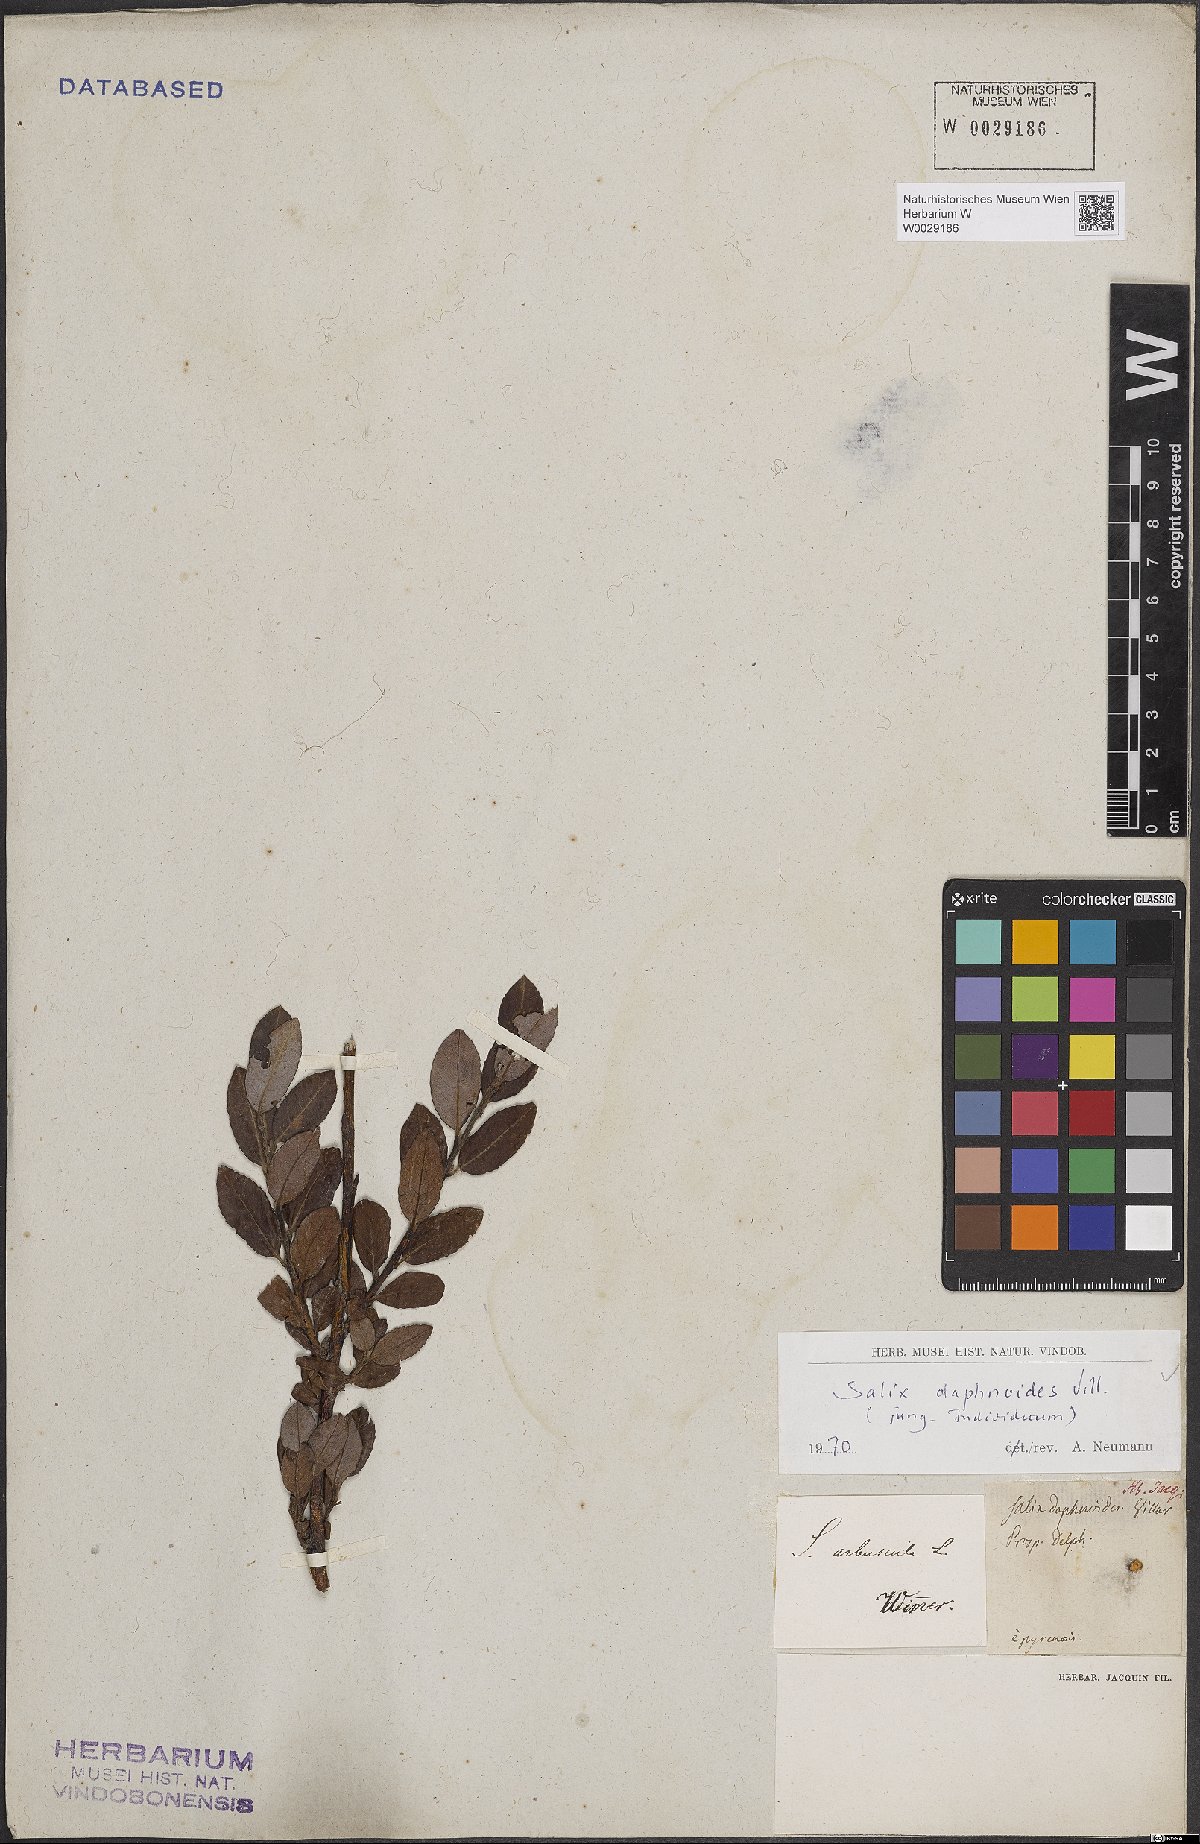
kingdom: Plantae
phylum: Tracheophyta
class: Magnoliopsida
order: Malpighiales
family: Salicaceae
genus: Salix
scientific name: Salix daphnoides
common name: European violet-willow
